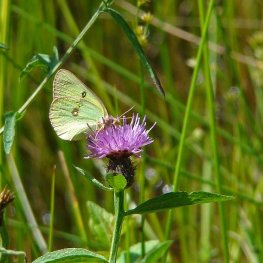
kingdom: Animalia
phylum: Arthropoda
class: Insecta
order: Lepidoptera
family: Pieridae
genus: Colias
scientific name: Colias interior
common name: Pink-edged Sulphur
